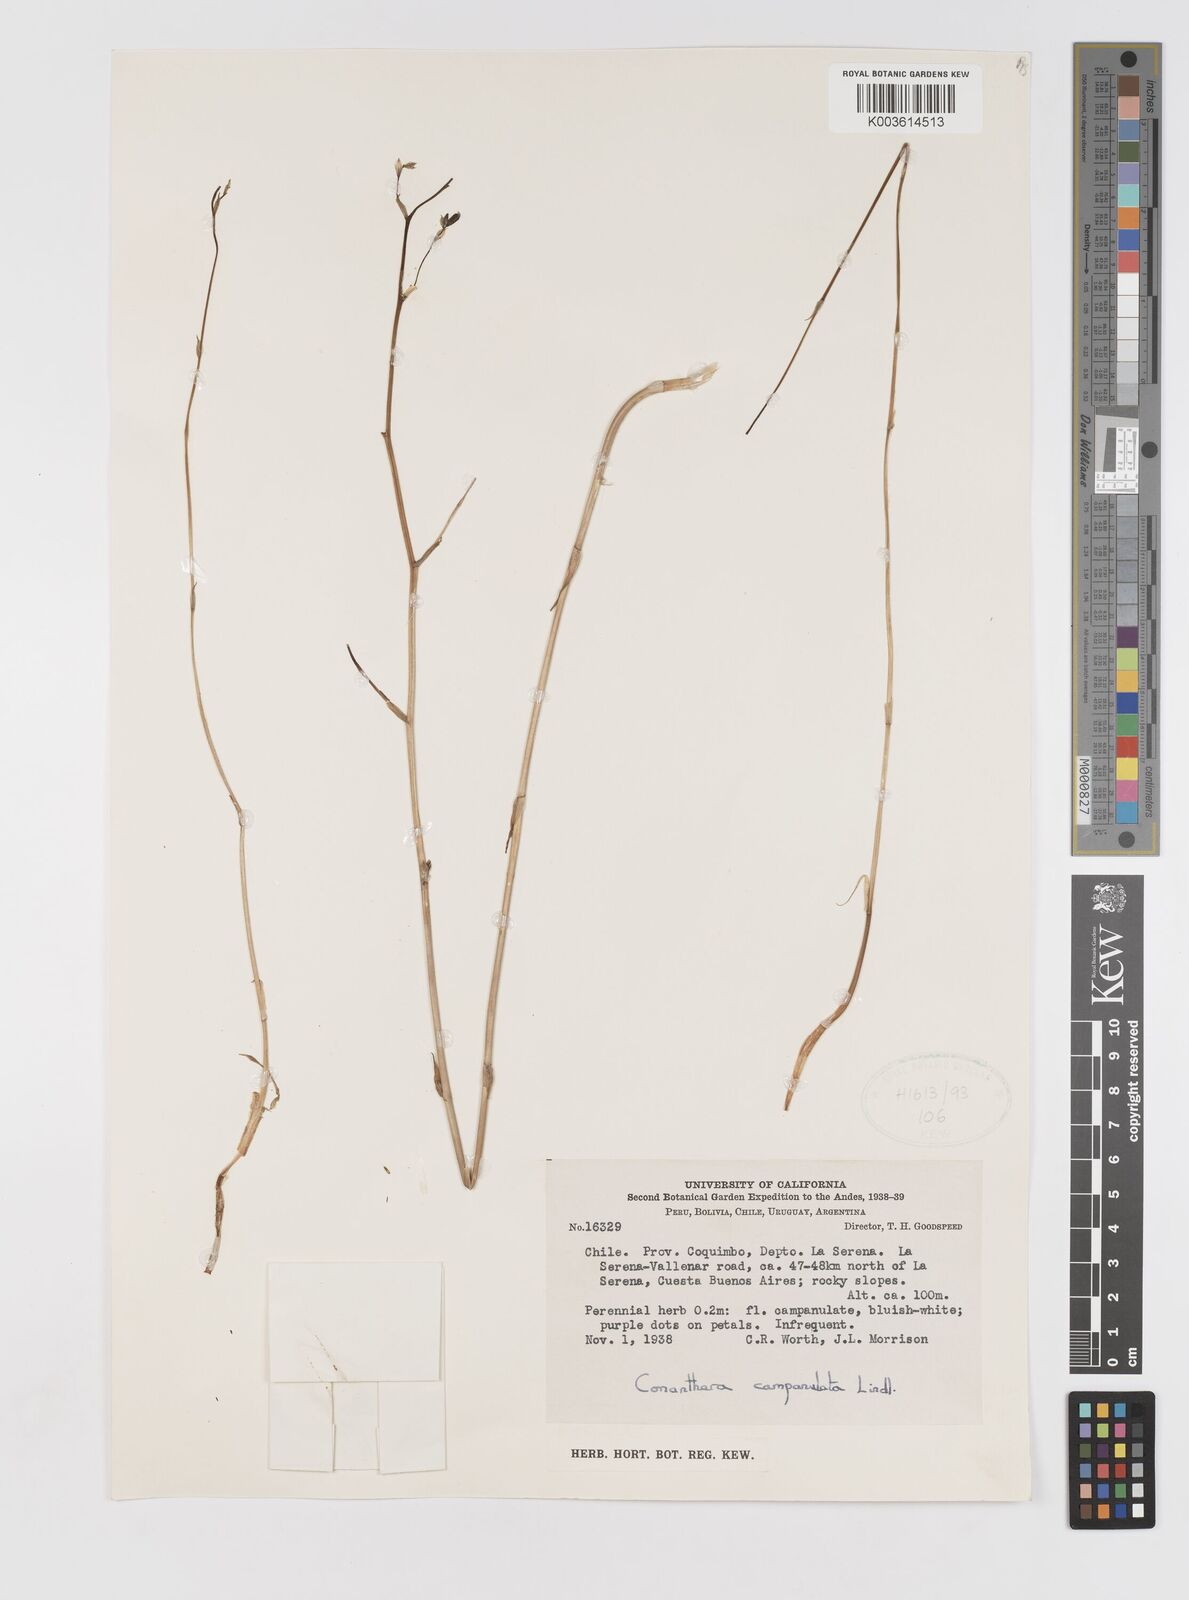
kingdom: Plantae
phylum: Tracheophyta
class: Liliopsida
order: Asparagales
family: Tecophilaeaceae
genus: Conanthera
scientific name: Conanthera campanulata
